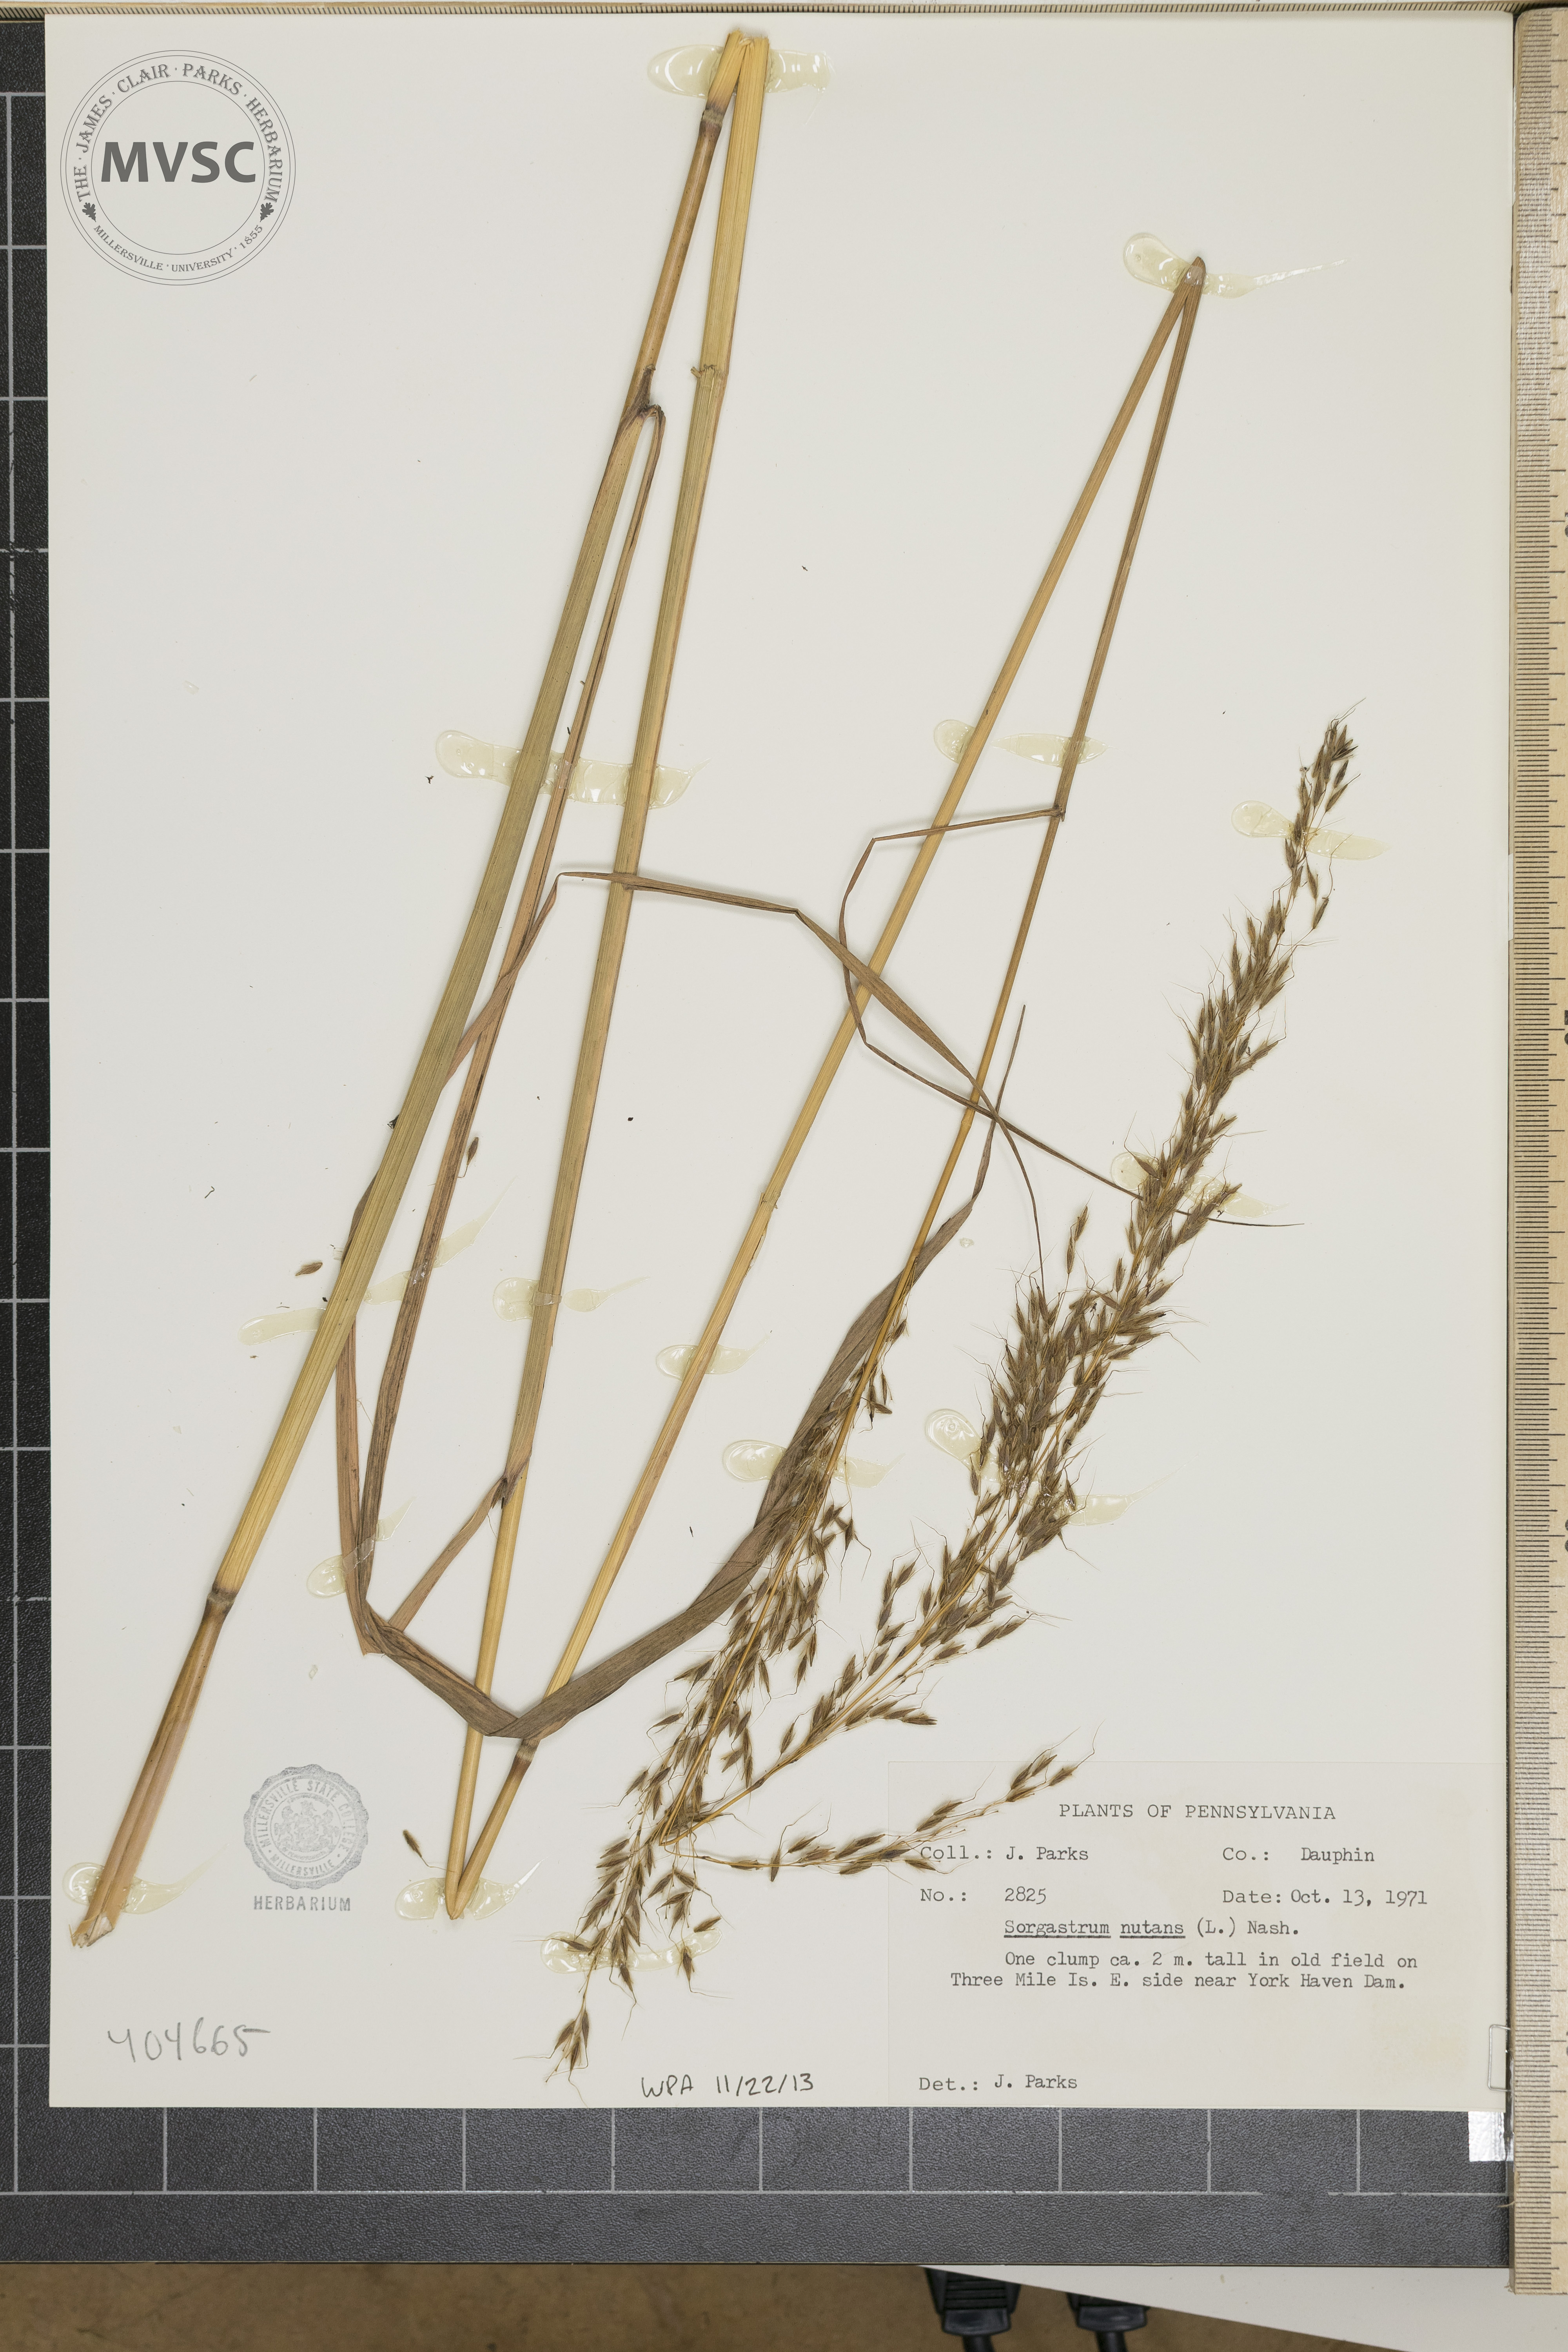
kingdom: Plantae
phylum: Tracheophyta
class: Liliopsida
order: Poales
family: Poaceae
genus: Sorghastrum
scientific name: Sorghastrum nutans
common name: Indian grass
